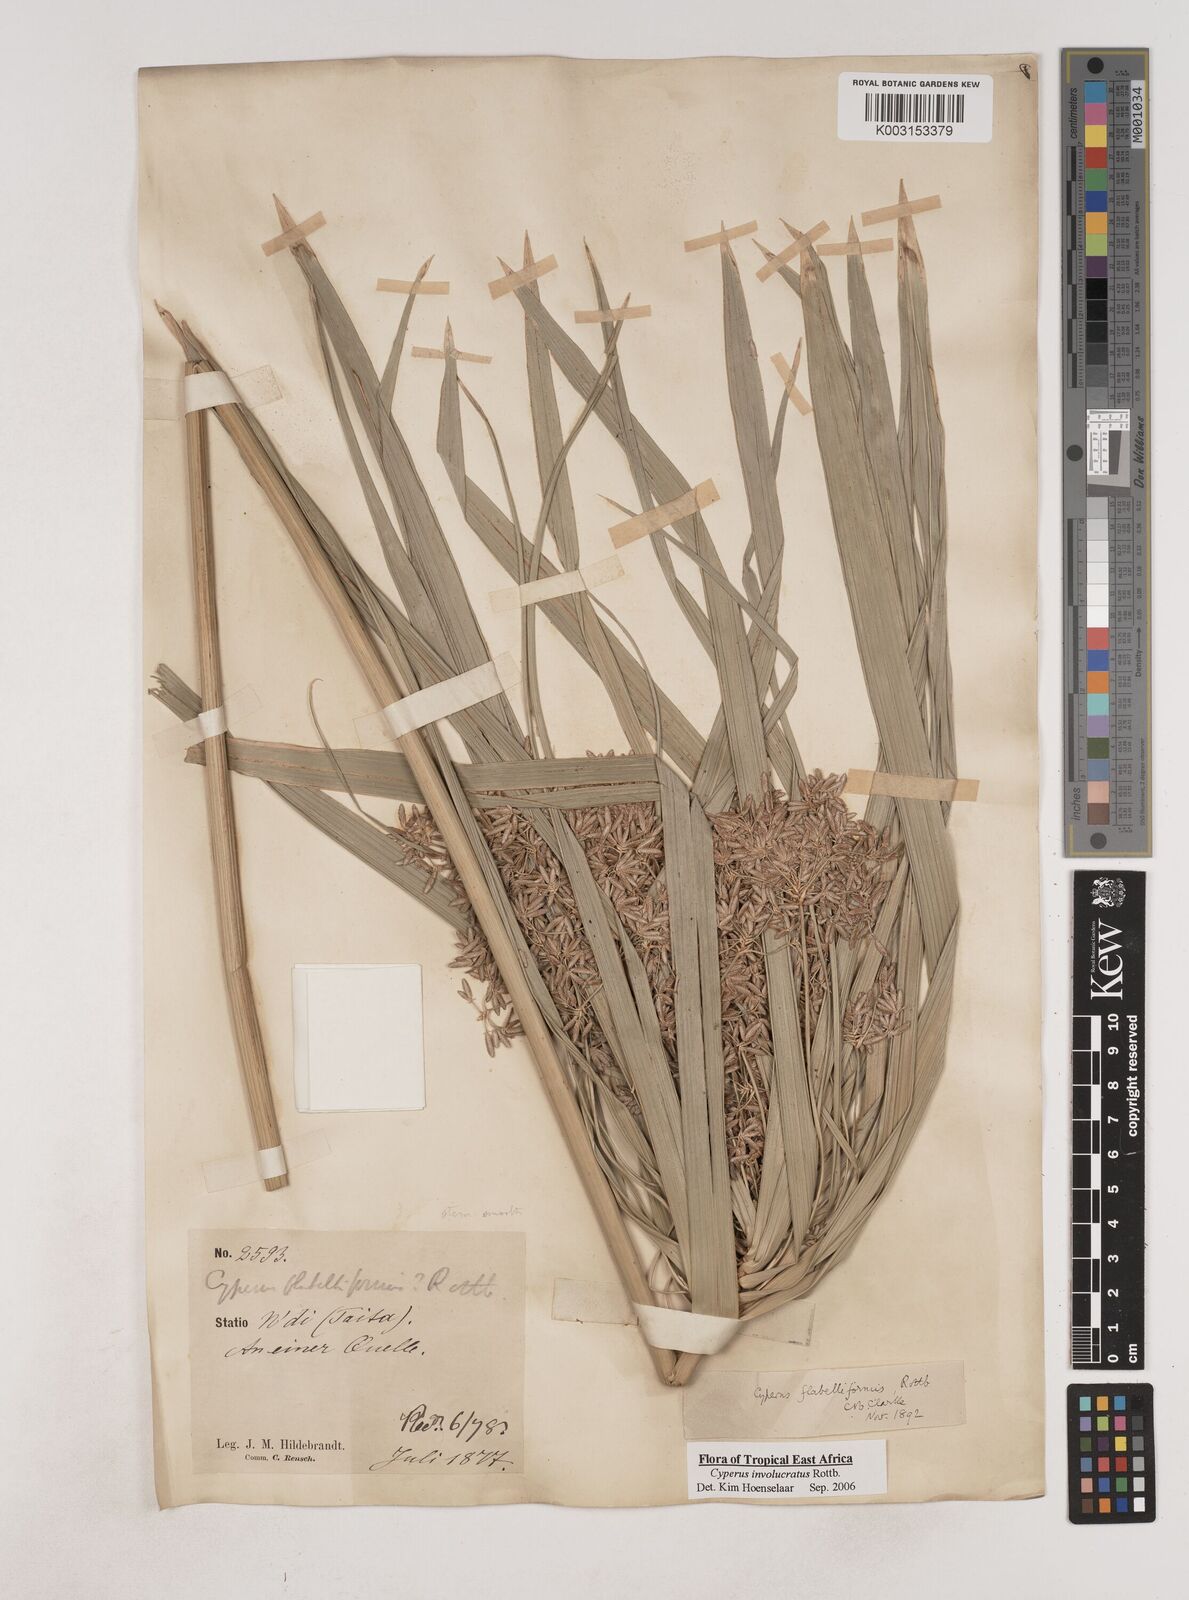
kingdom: Plantae
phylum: Tracheophyta
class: Liliopsida
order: Poales
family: Cyperaceae
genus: Cyperus
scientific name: Cyperus alternifolius
